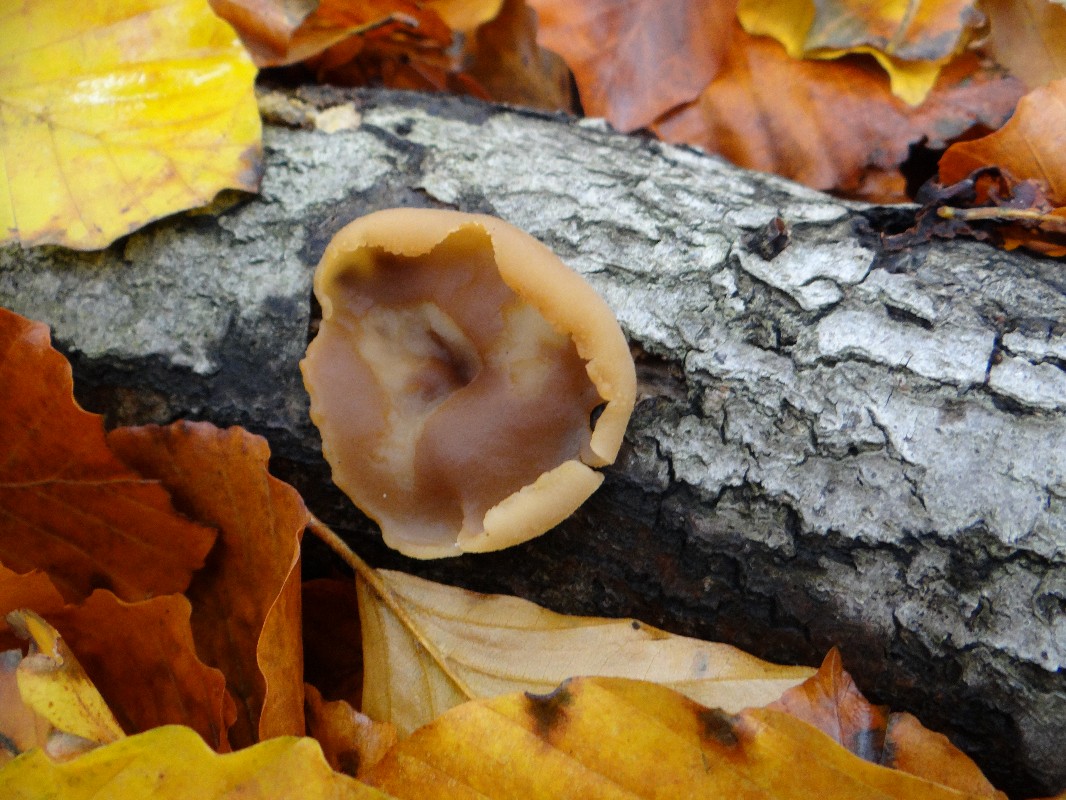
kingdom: Fungi
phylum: Ascomycota
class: Pezizomycetes
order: Pezizales
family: Pezizaceae
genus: Peziza
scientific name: Peziza varia
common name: Ved-bægersvamp
